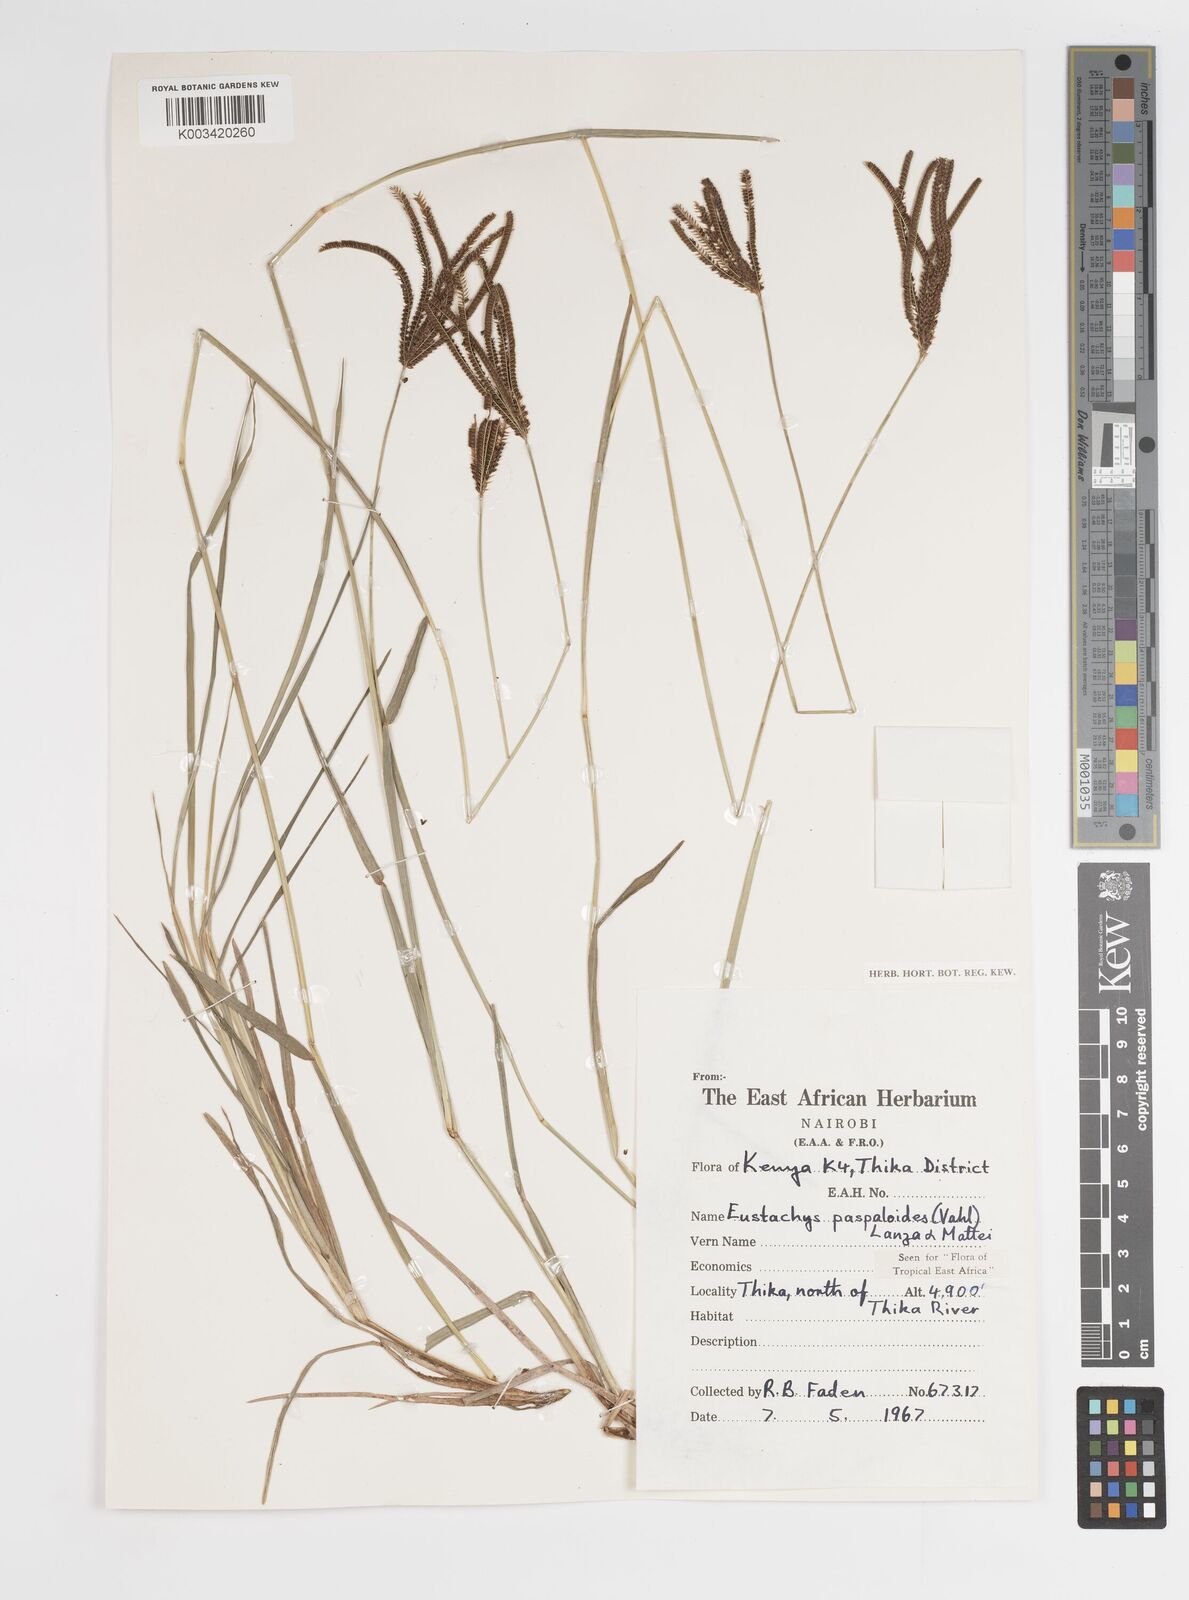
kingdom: Plantae
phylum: Tracheophyta
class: Liliopsida
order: Poales
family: Poaceae
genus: Eustachys
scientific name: Eustachys paspaloides
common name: Caribbean fingergrass
